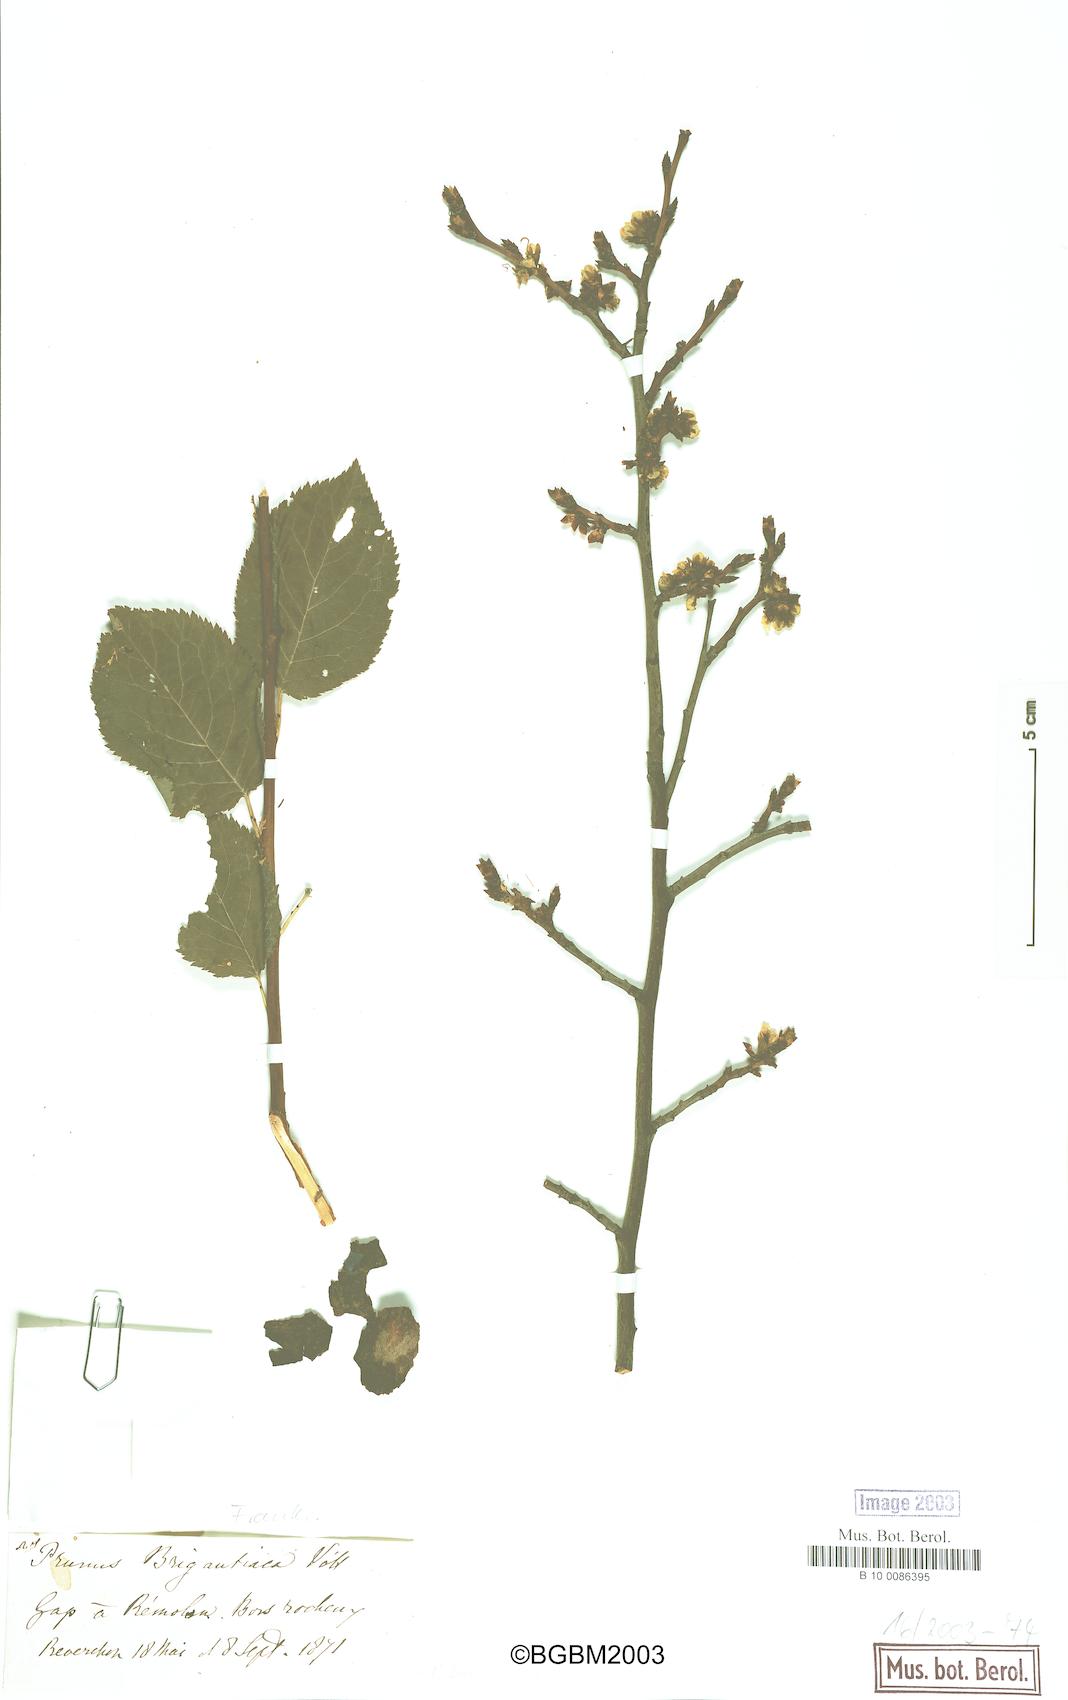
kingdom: Plantae
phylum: Tracheophyta
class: Magnoliopsida
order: Rosales
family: Rosaceae
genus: Prunus
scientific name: Prunus
